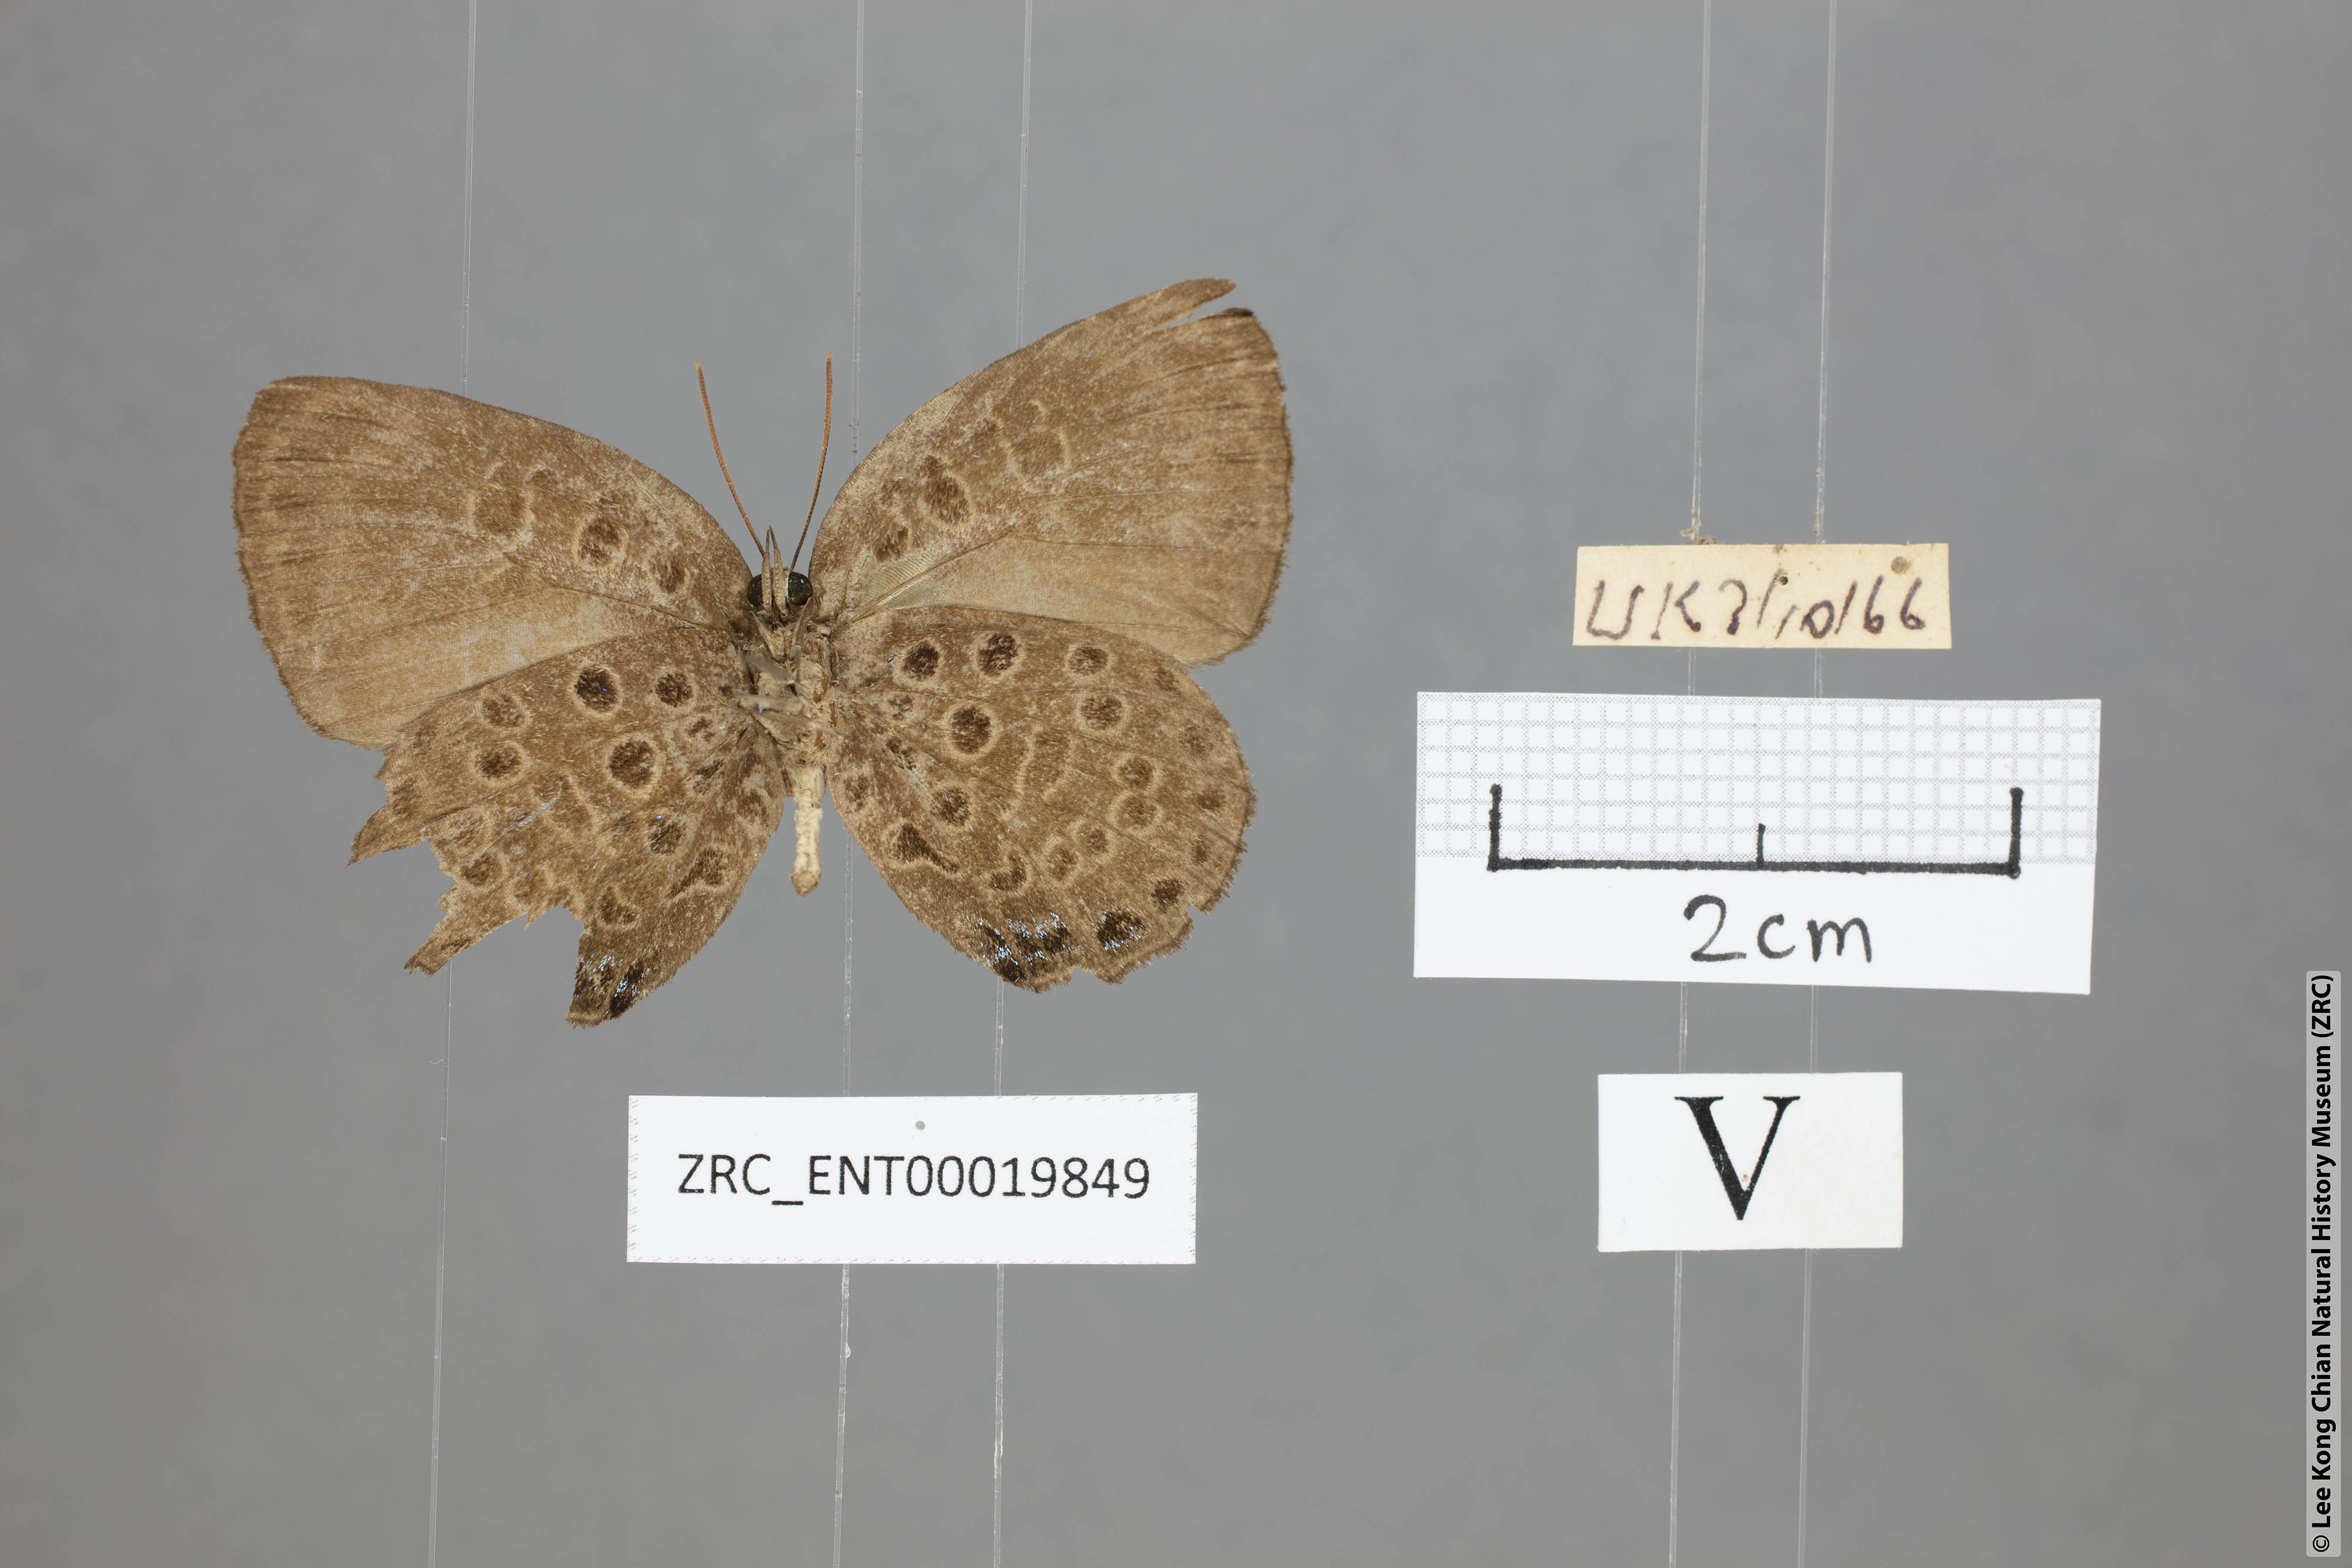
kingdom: Animalia
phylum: Arthropoda
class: Insecta
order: Lepidoptera
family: Lycaenidae
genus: Arhopala
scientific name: Arhopala similis
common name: Druce's oakblue
